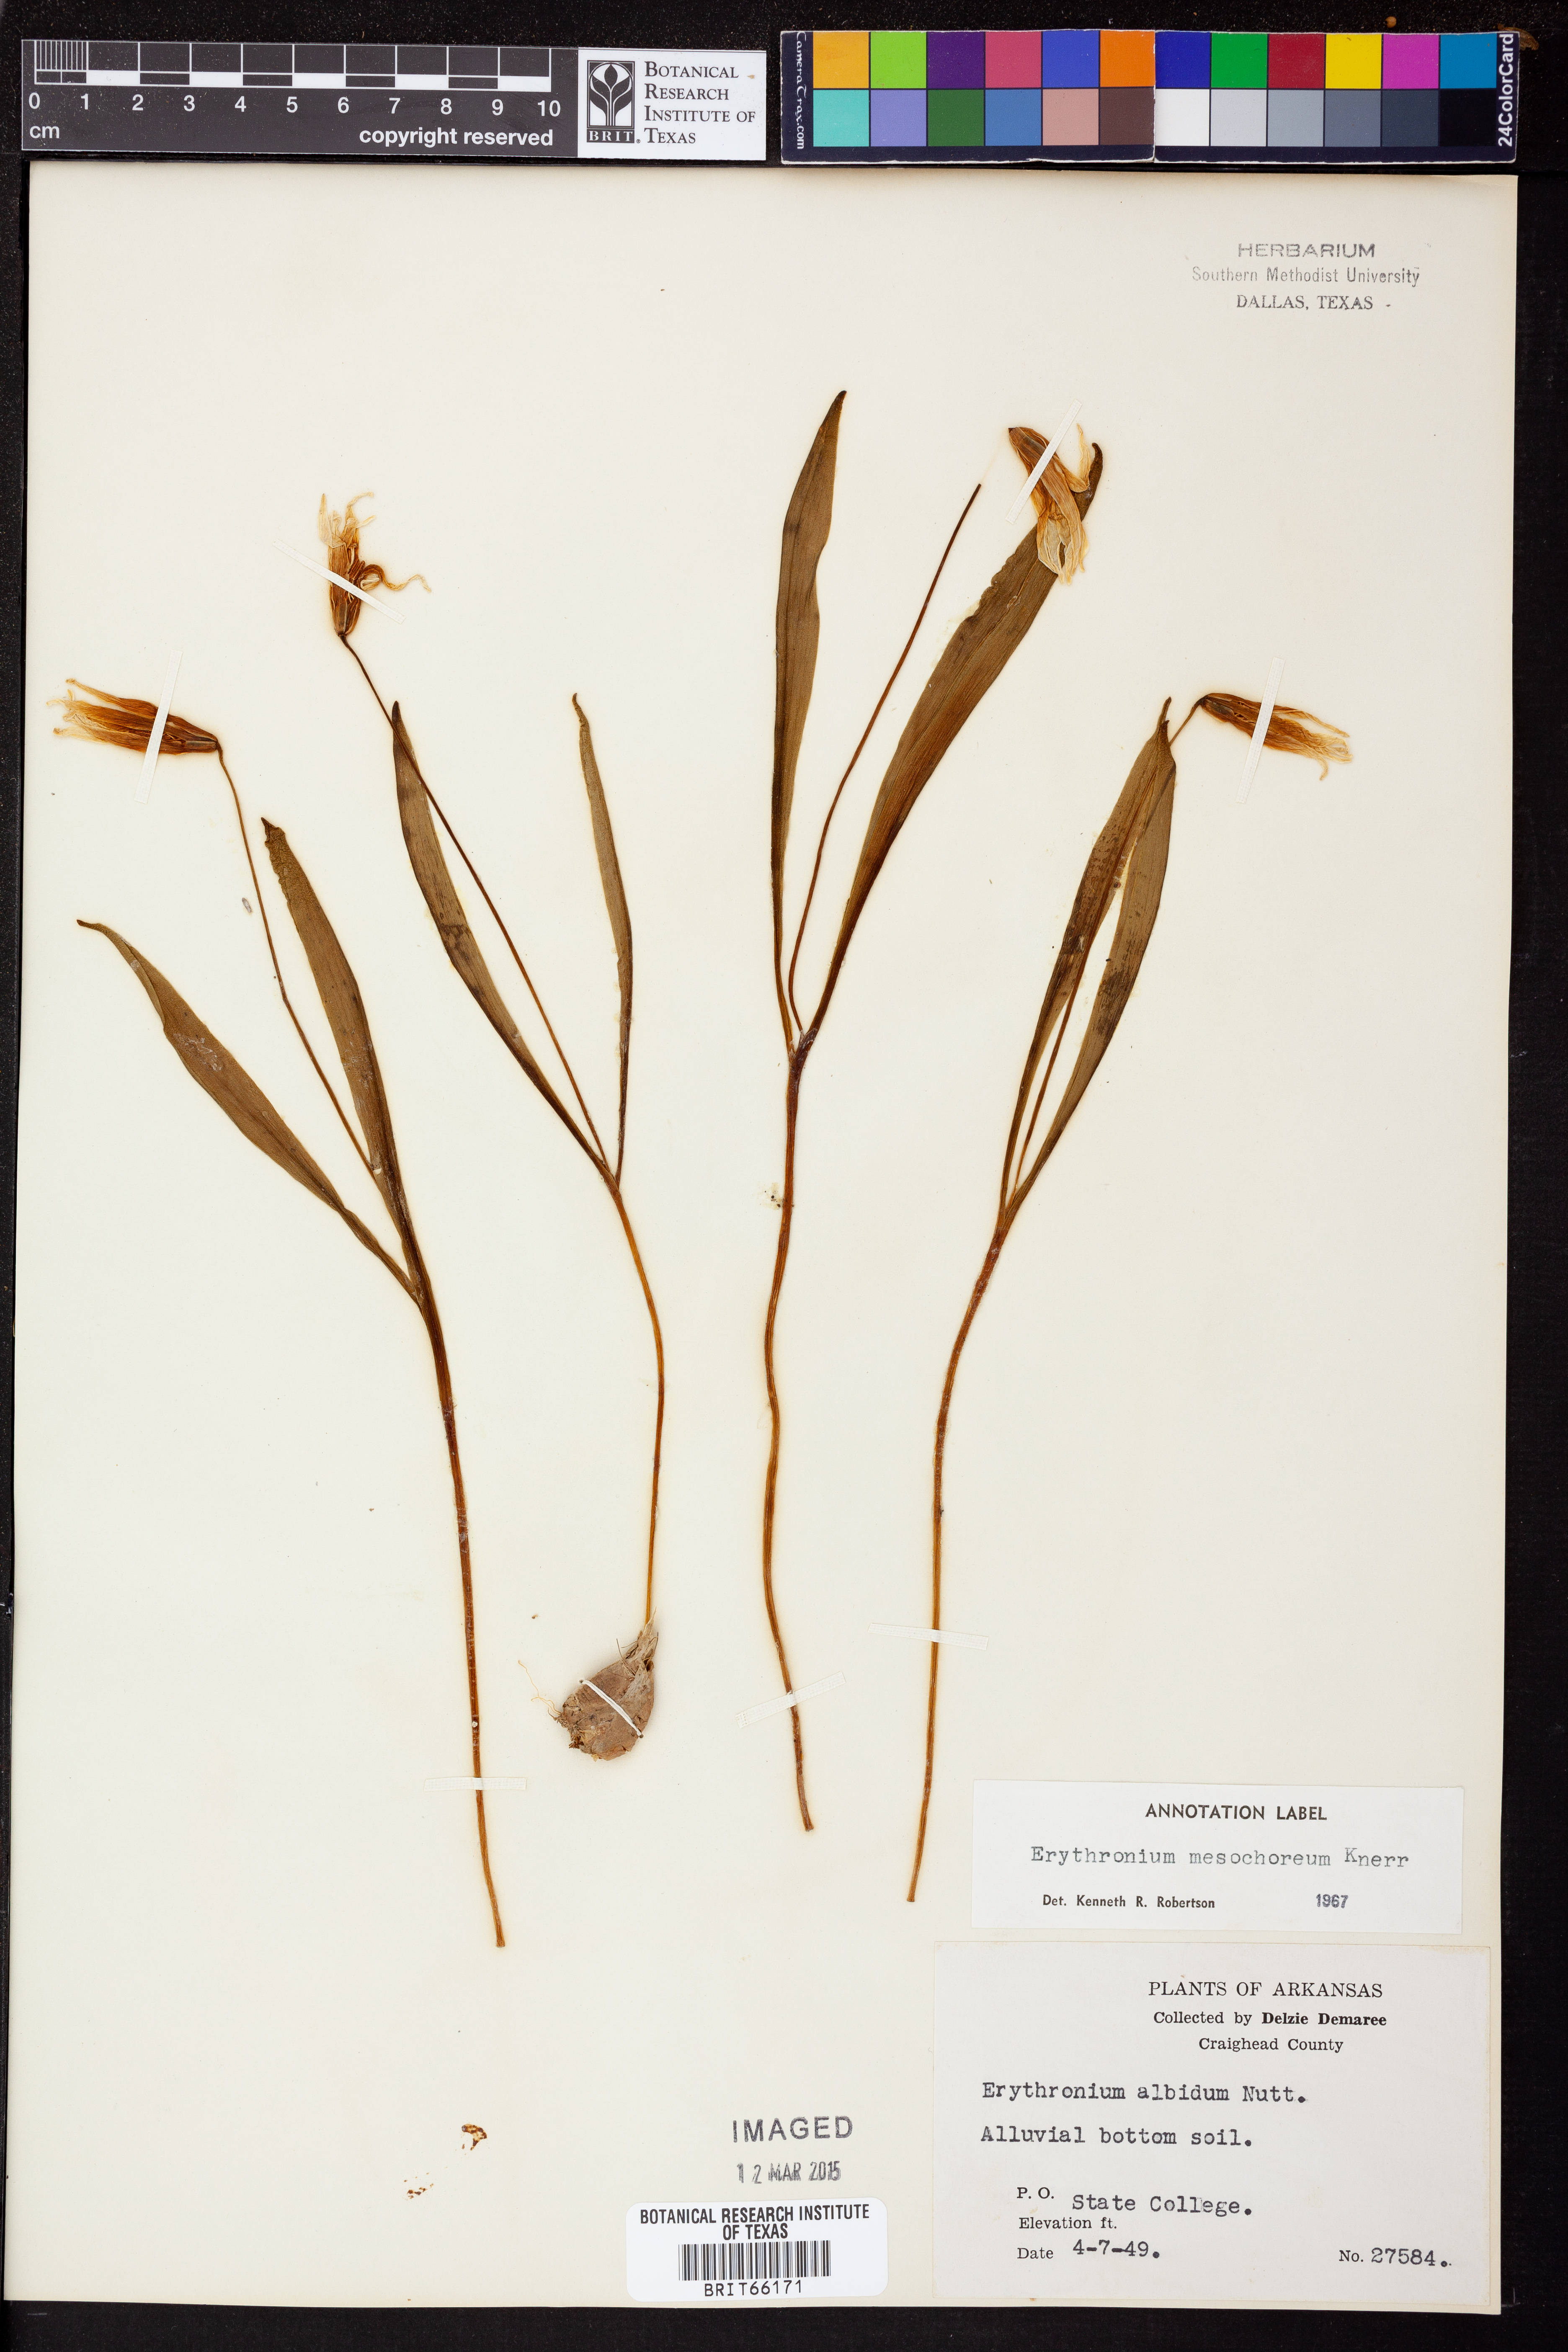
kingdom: Plantae
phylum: Tracheophyta
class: Liliopsida
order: Liliales
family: Liliaceae
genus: Erythronium
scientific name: Erythronium mesochoreum
